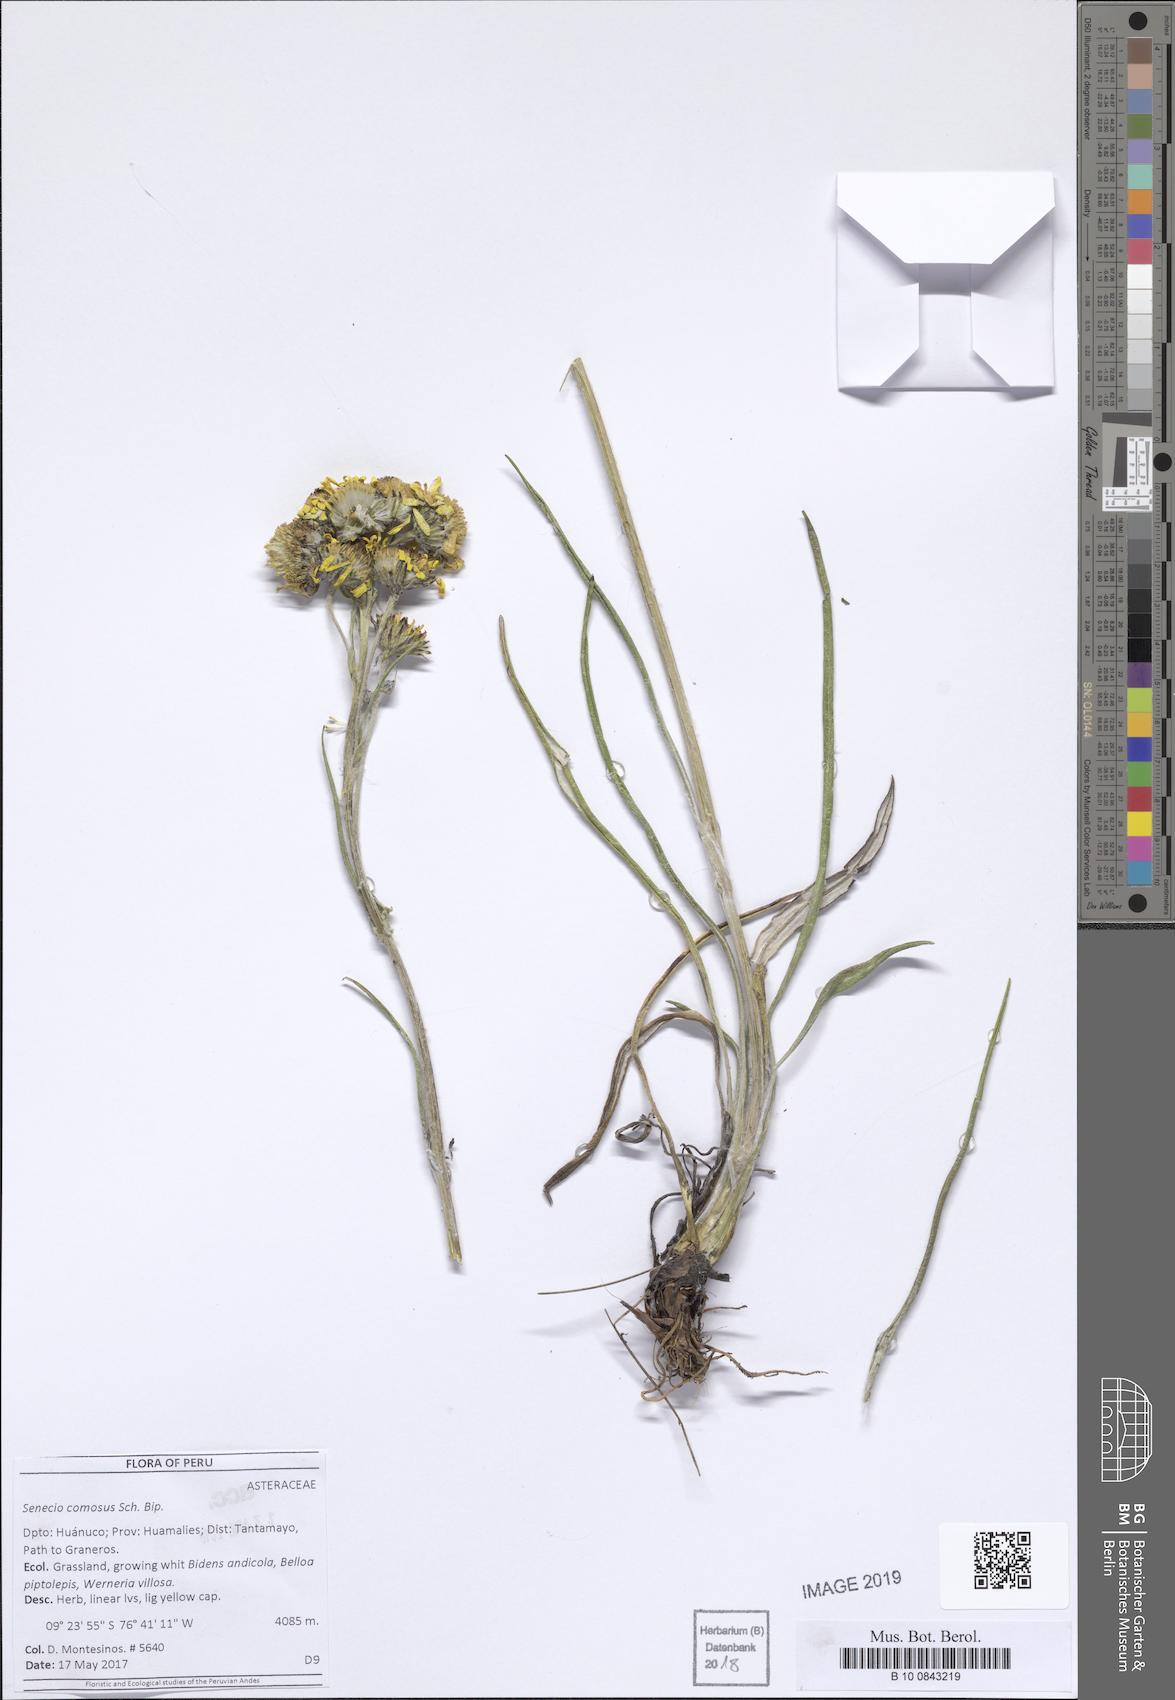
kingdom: Plantae
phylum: Tracheophyta
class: Magnoliopsida
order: Asterales
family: Asteraceae
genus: Senecio
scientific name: Senecio comosus
